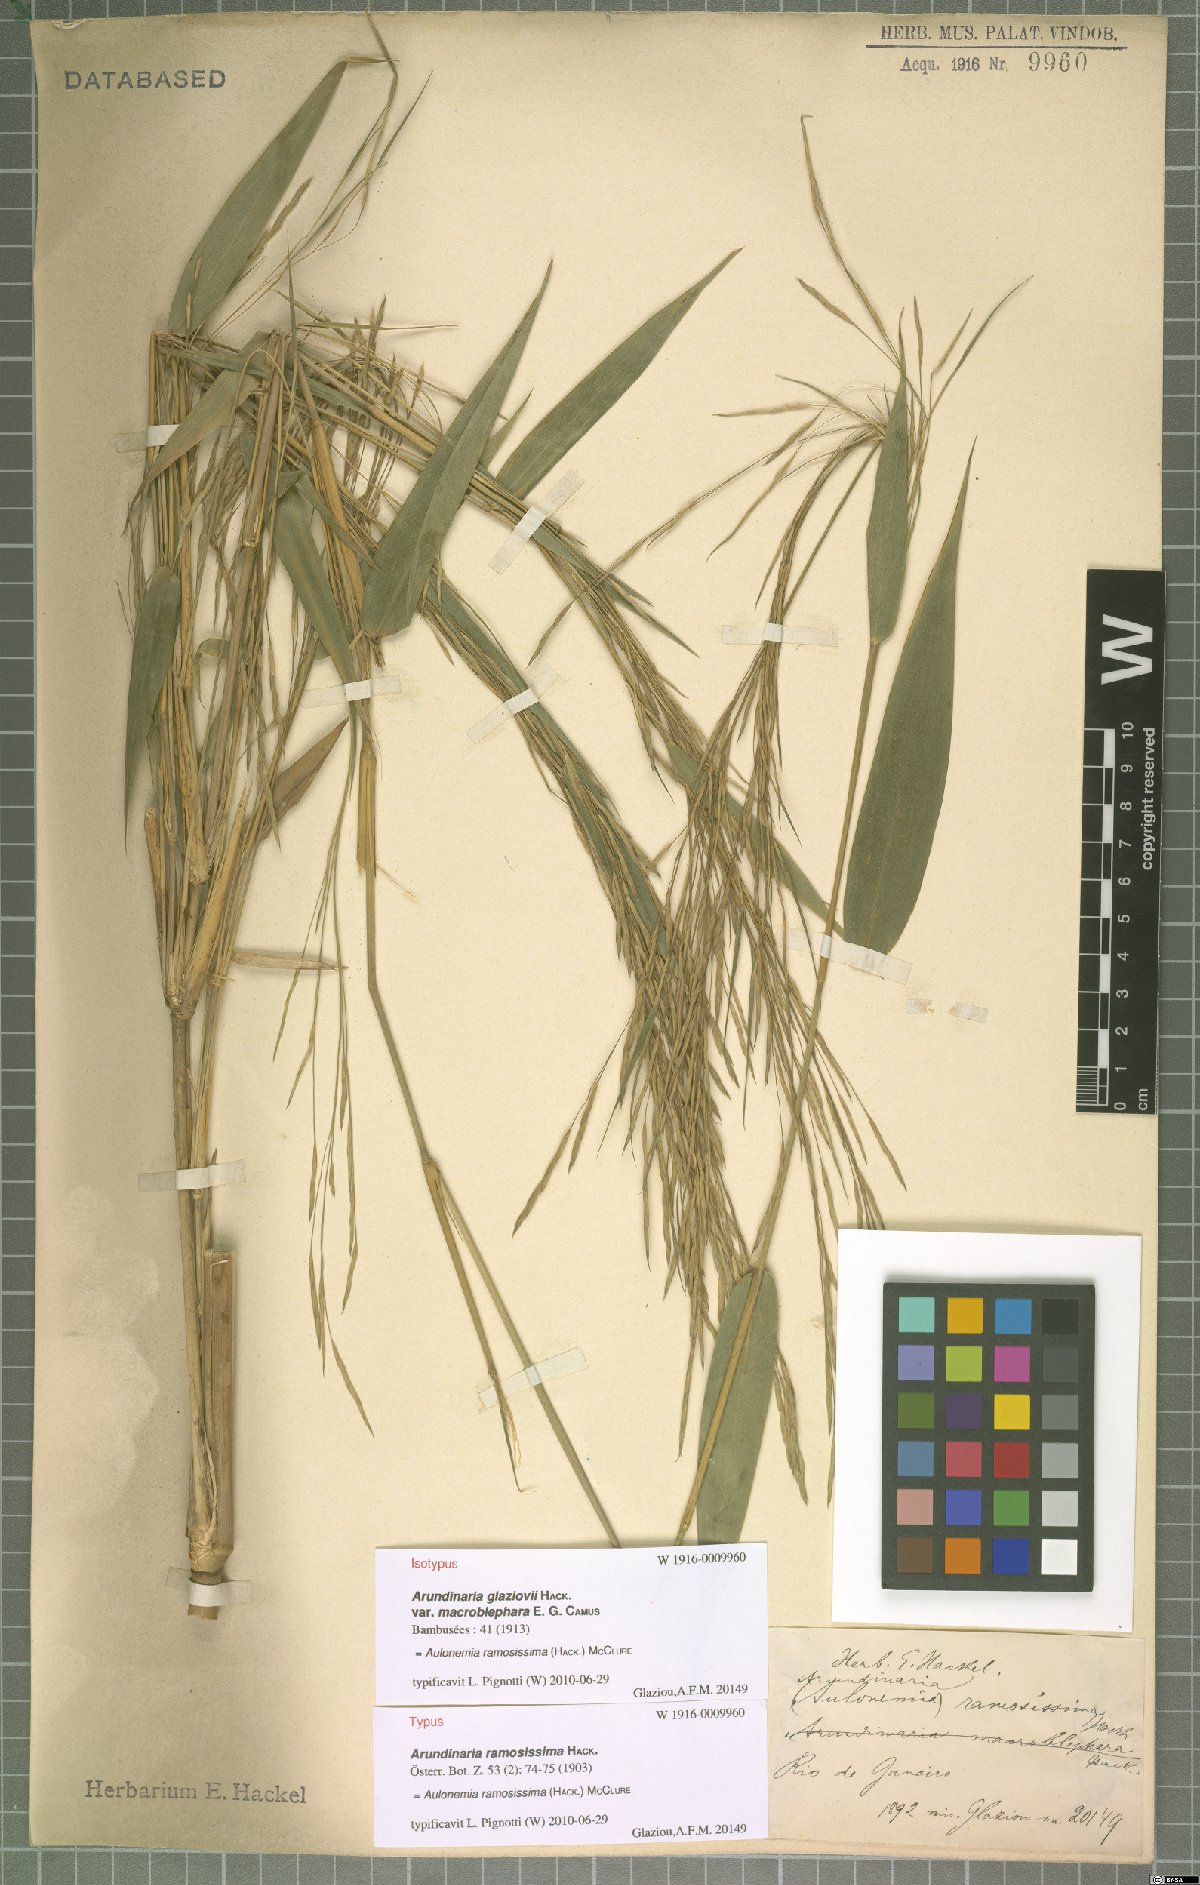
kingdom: Plantae
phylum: Tracheophyta
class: Liliopsida
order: Poales
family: Poaceae
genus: Aulonemia
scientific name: Aulonemia radiata
